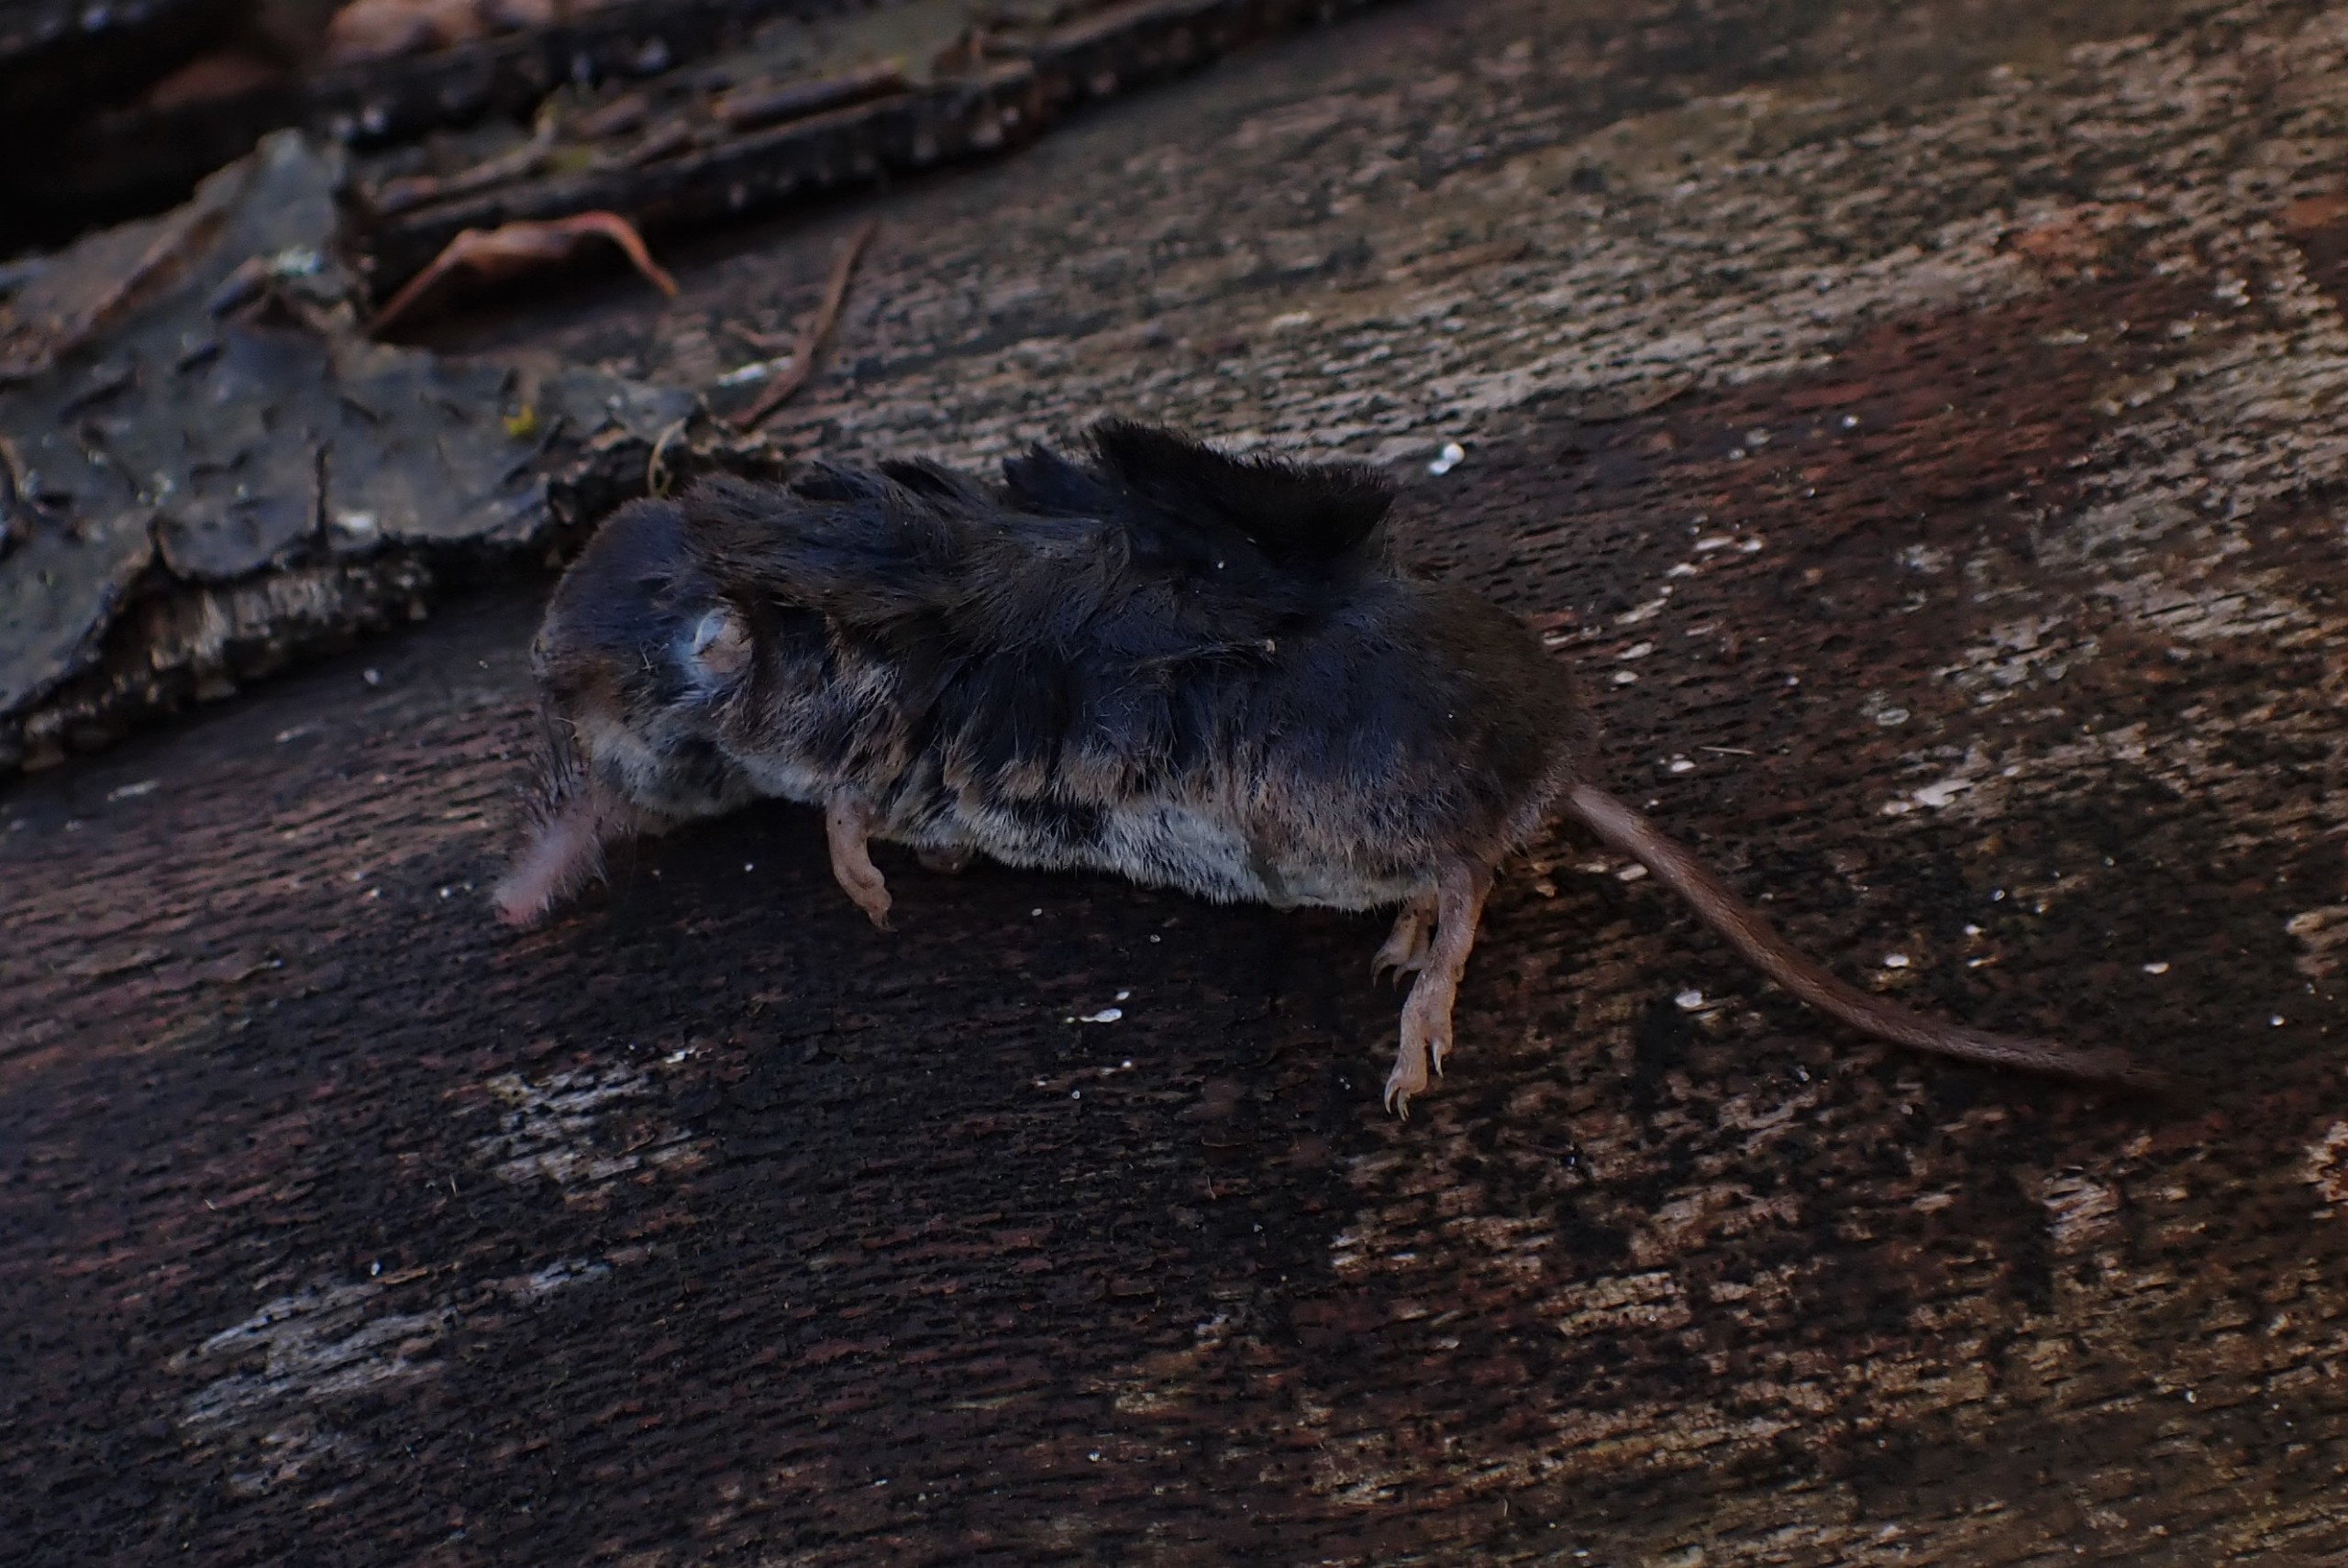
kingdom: Animalia
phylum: Chordata
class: Mammalia
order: Soricomorpha
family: Soricidae
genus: Sorex
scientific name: Sorex araneus
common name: Almindelig spidsmus
